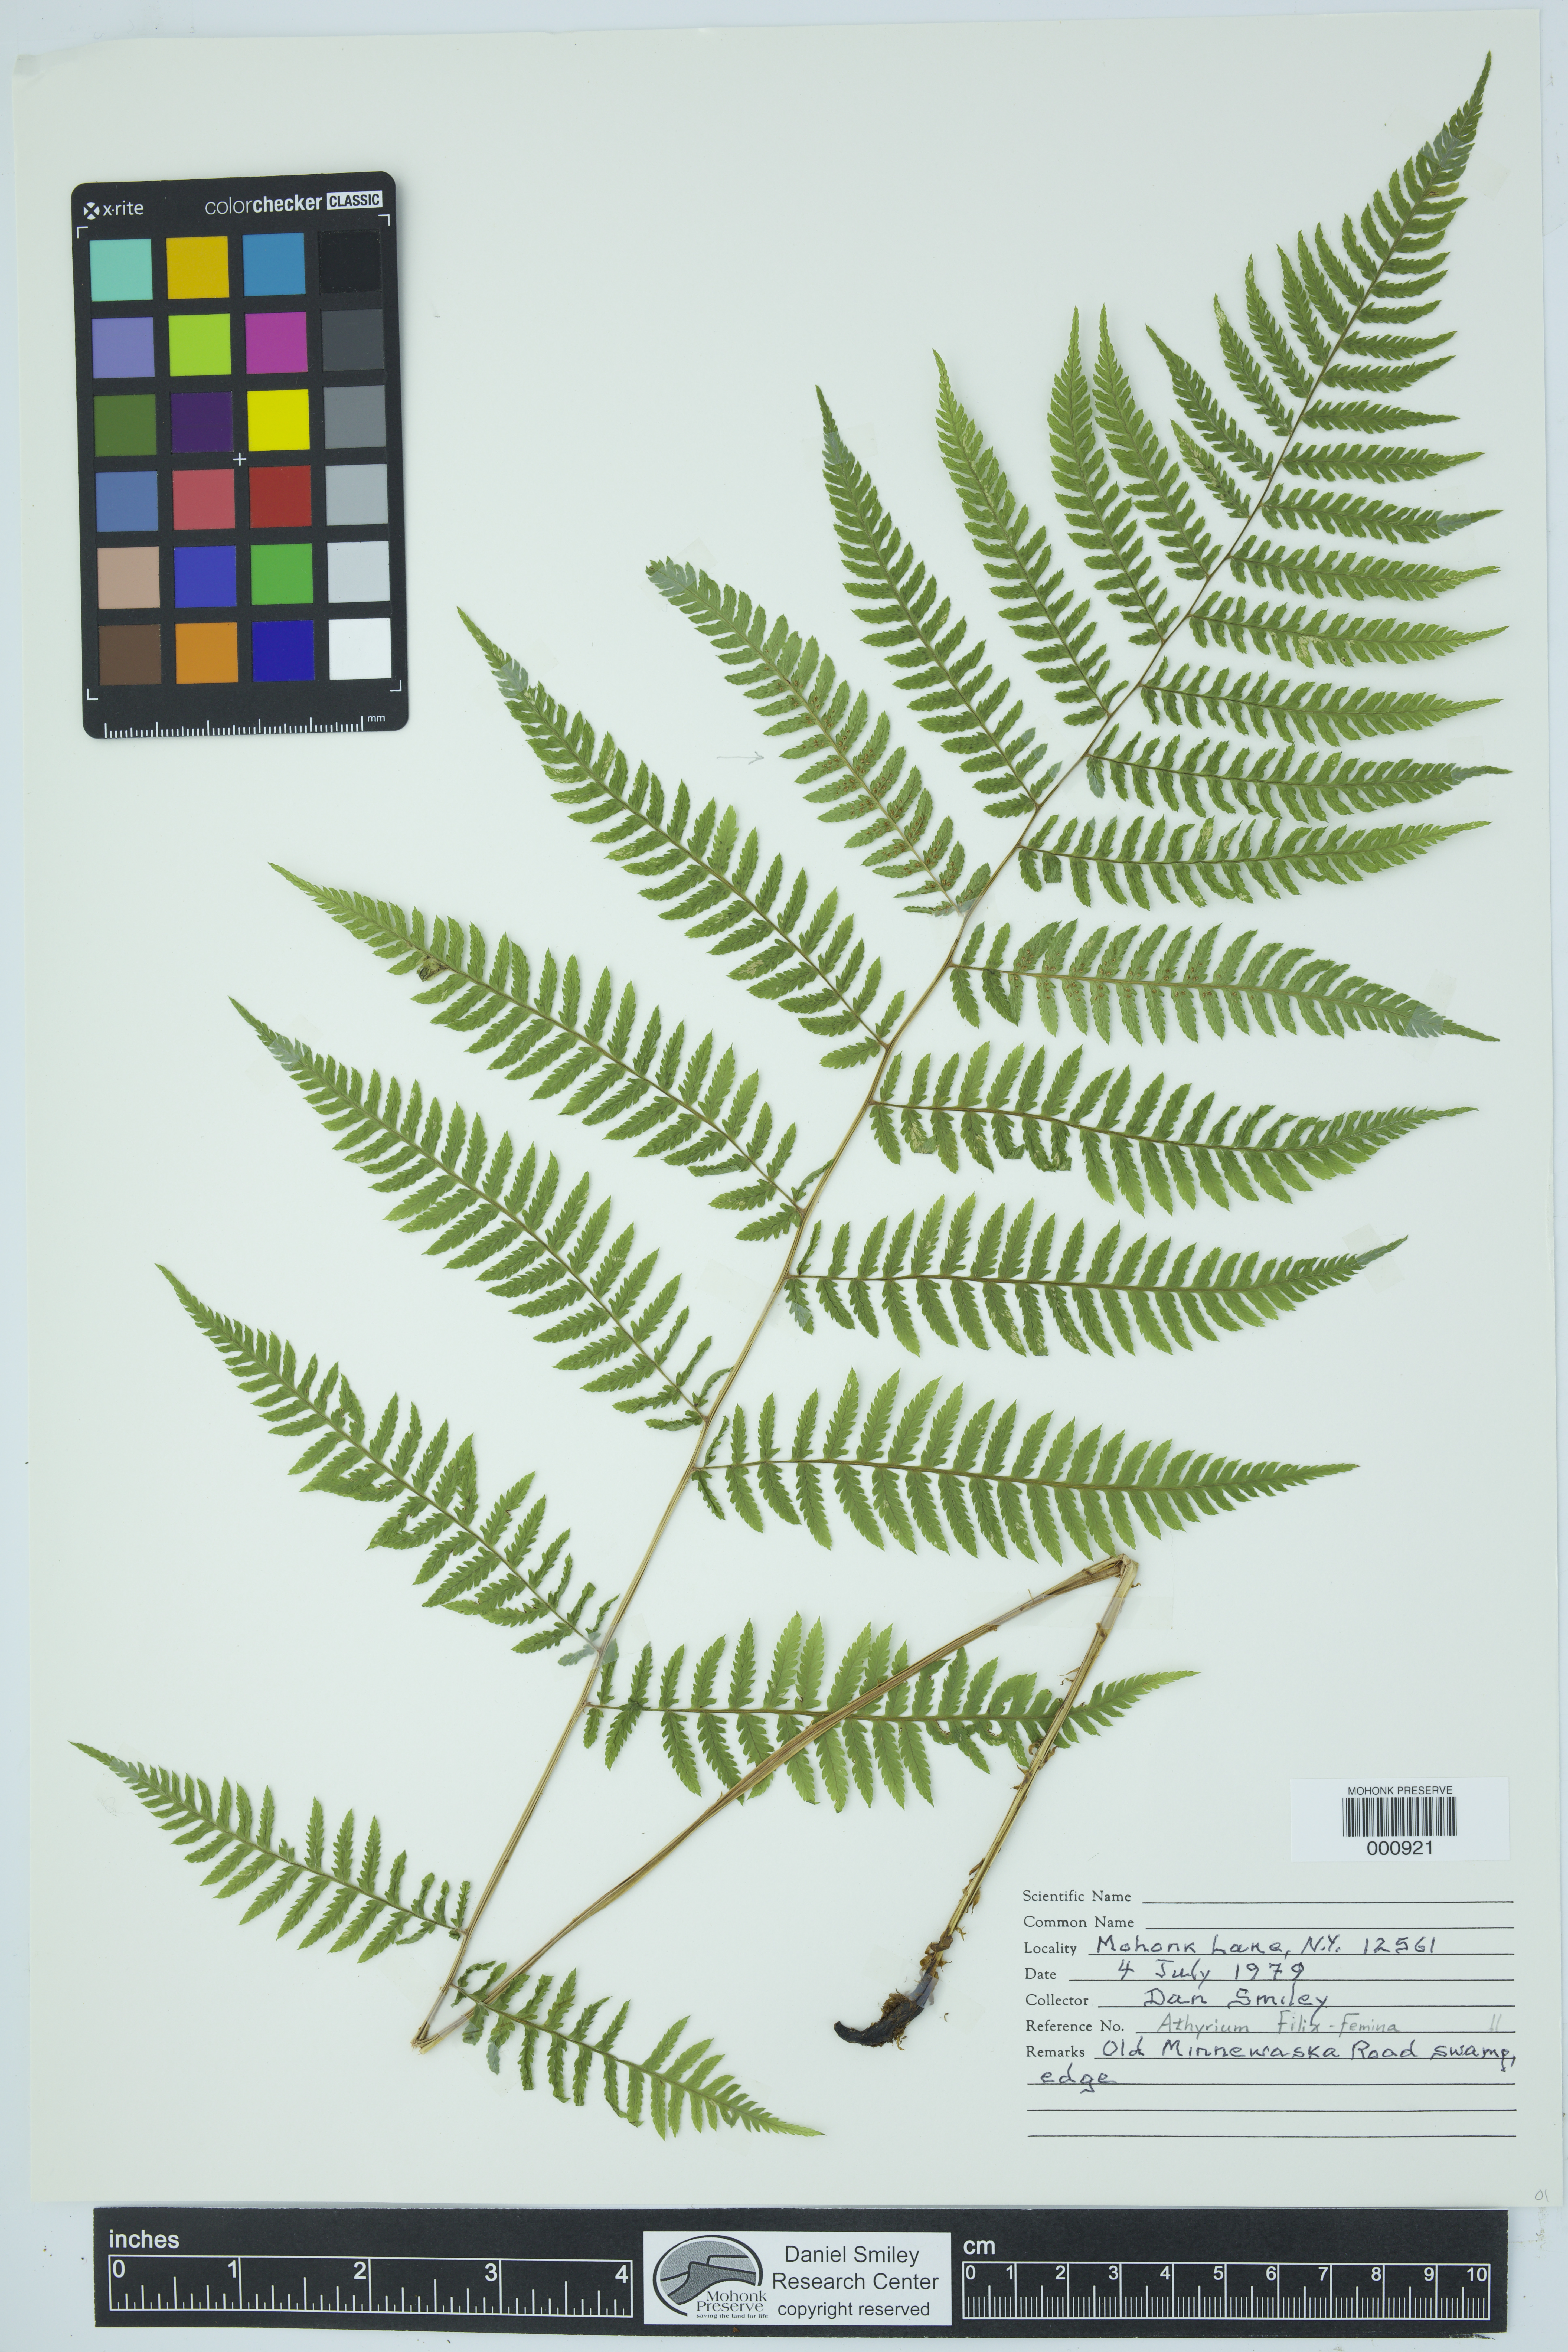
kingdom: Plantae
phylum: Tracheophyta
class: Polypodiopsida
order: Polypodiales
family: Athyriaceae
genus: Athyrium
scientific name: Athyrium filix-femina
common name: Lady fern
